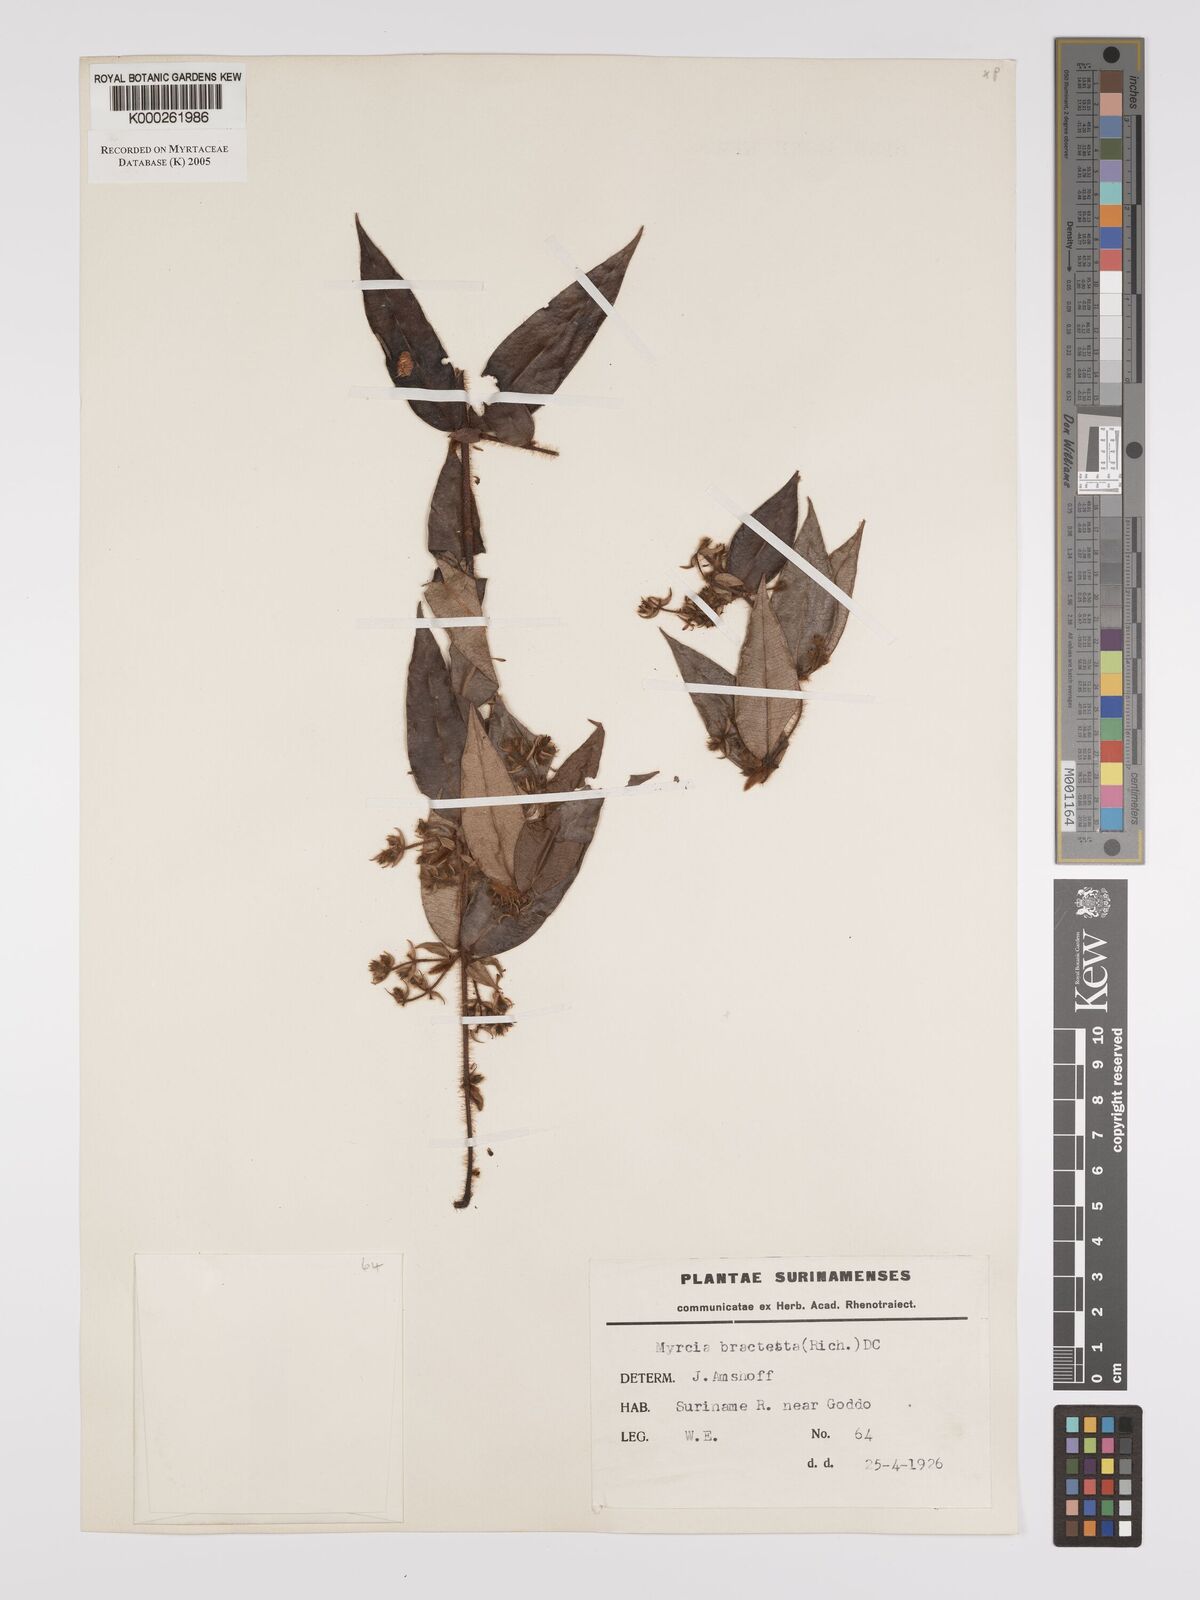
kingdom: Plantae
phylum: Tracheophyta
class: Magnoliopsida
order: Myrtales
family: Myrtaceae
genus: Myrcia
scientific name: Myrcia bracteata
